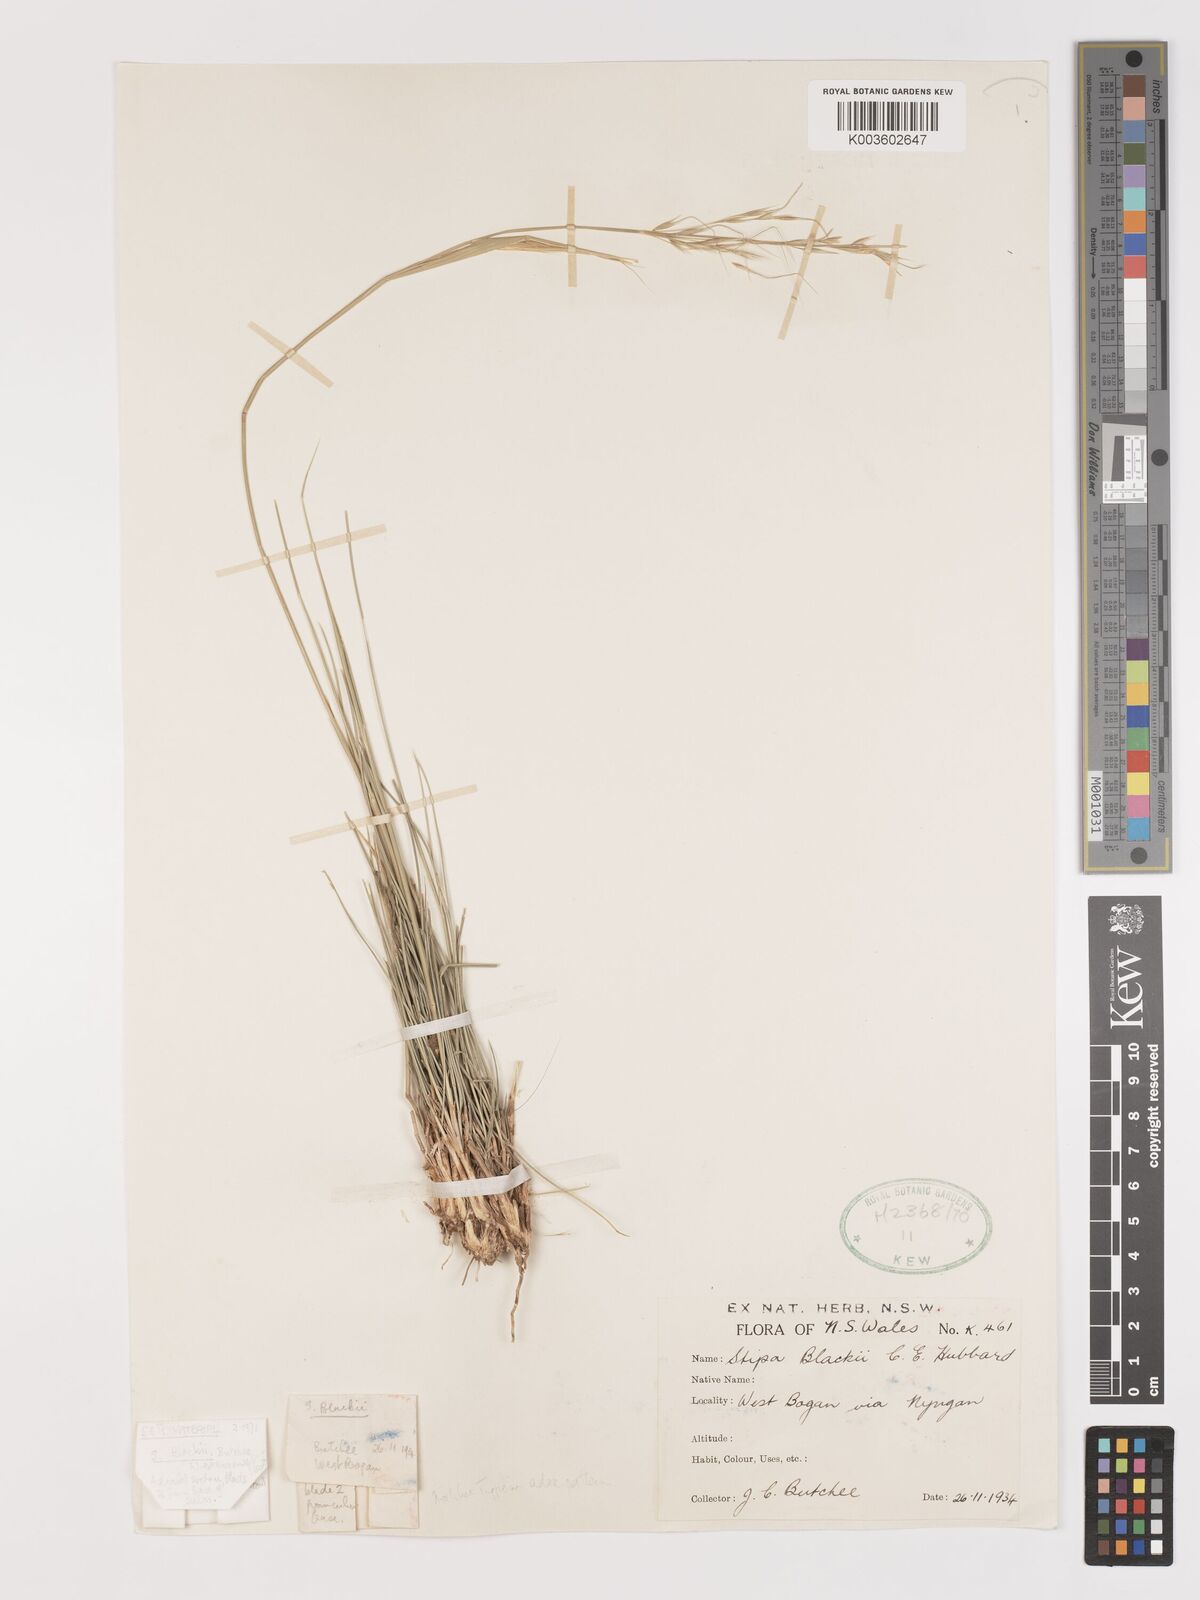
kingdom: Plantae
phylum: Tracheophyta
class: Liliopsida
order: Poales
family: Poaceae
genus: Austrostipa
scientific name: Austrostipa blackii
